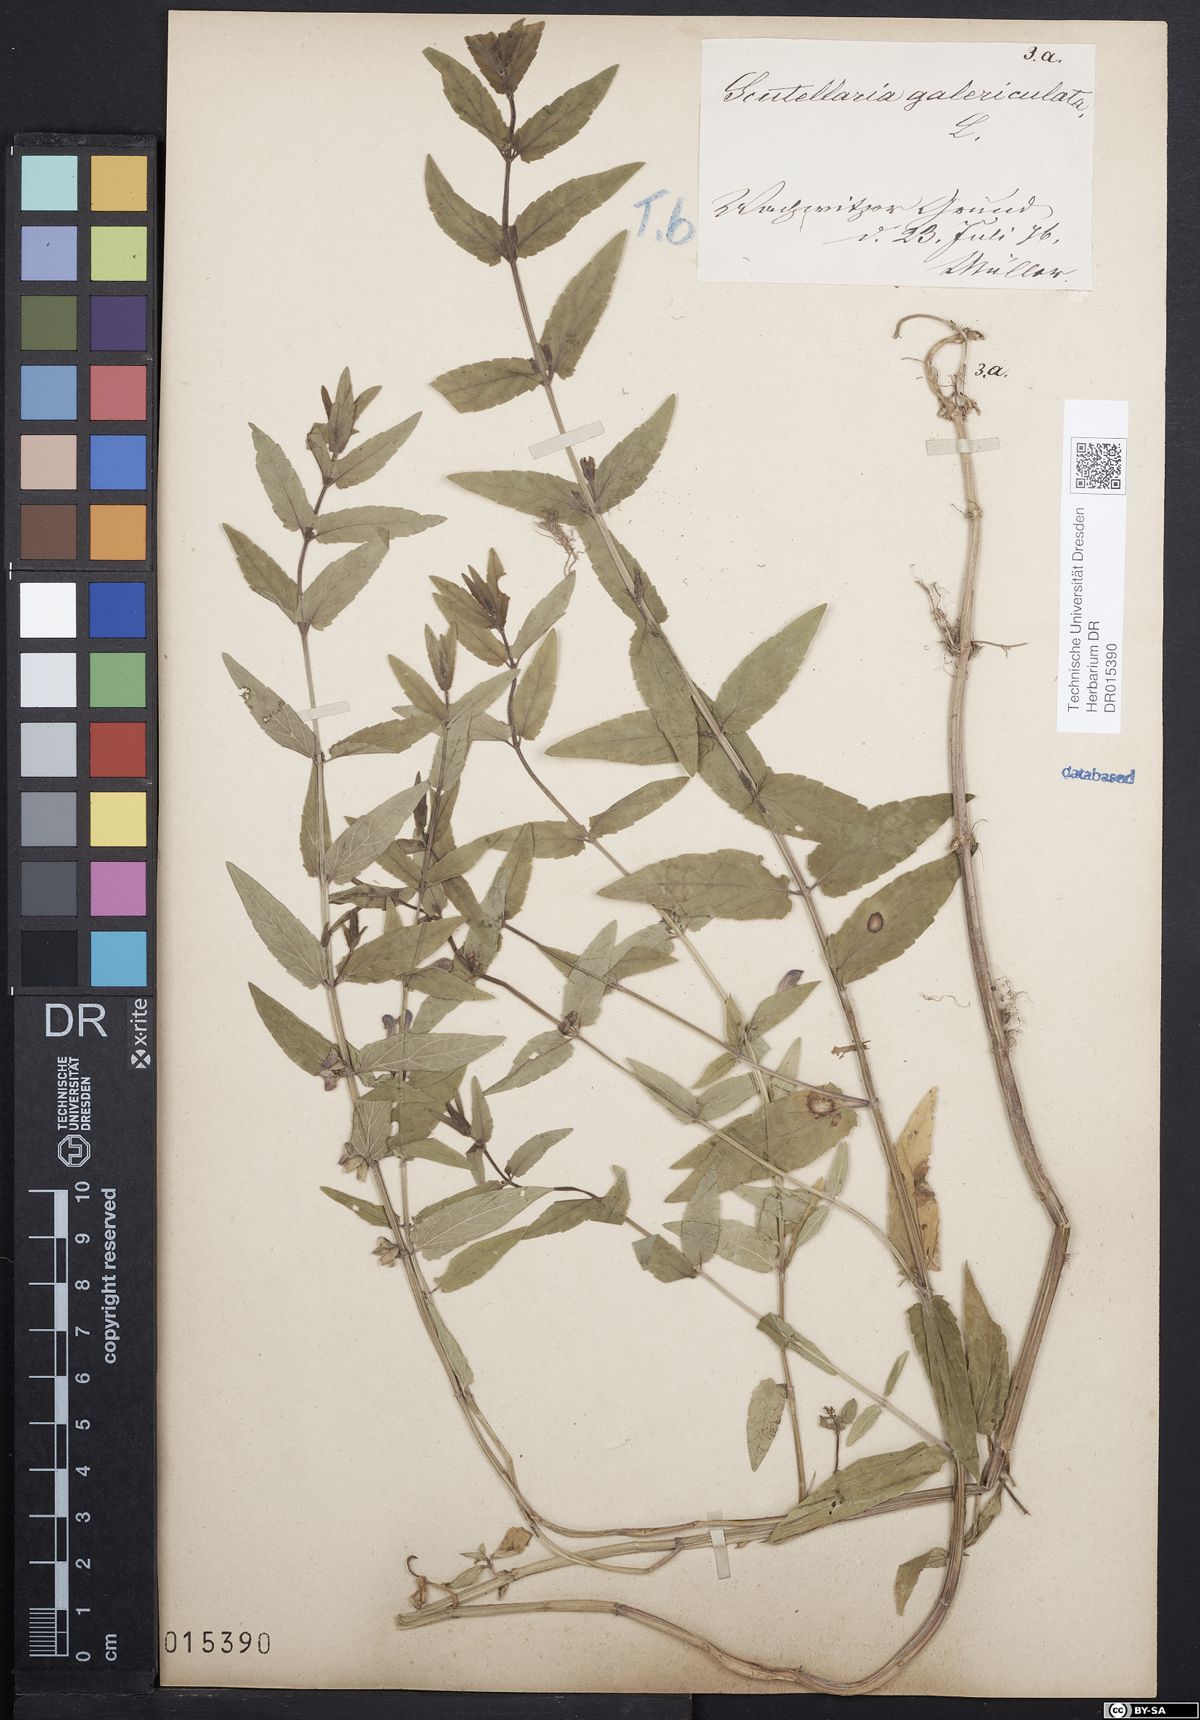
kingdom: Plantae
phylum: Tracheophyta
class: Magnoliopsida
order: Lamiales
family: Lamiaceae
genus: Scutellaria
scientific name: Scutellaria galericulata
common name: Skullcap
